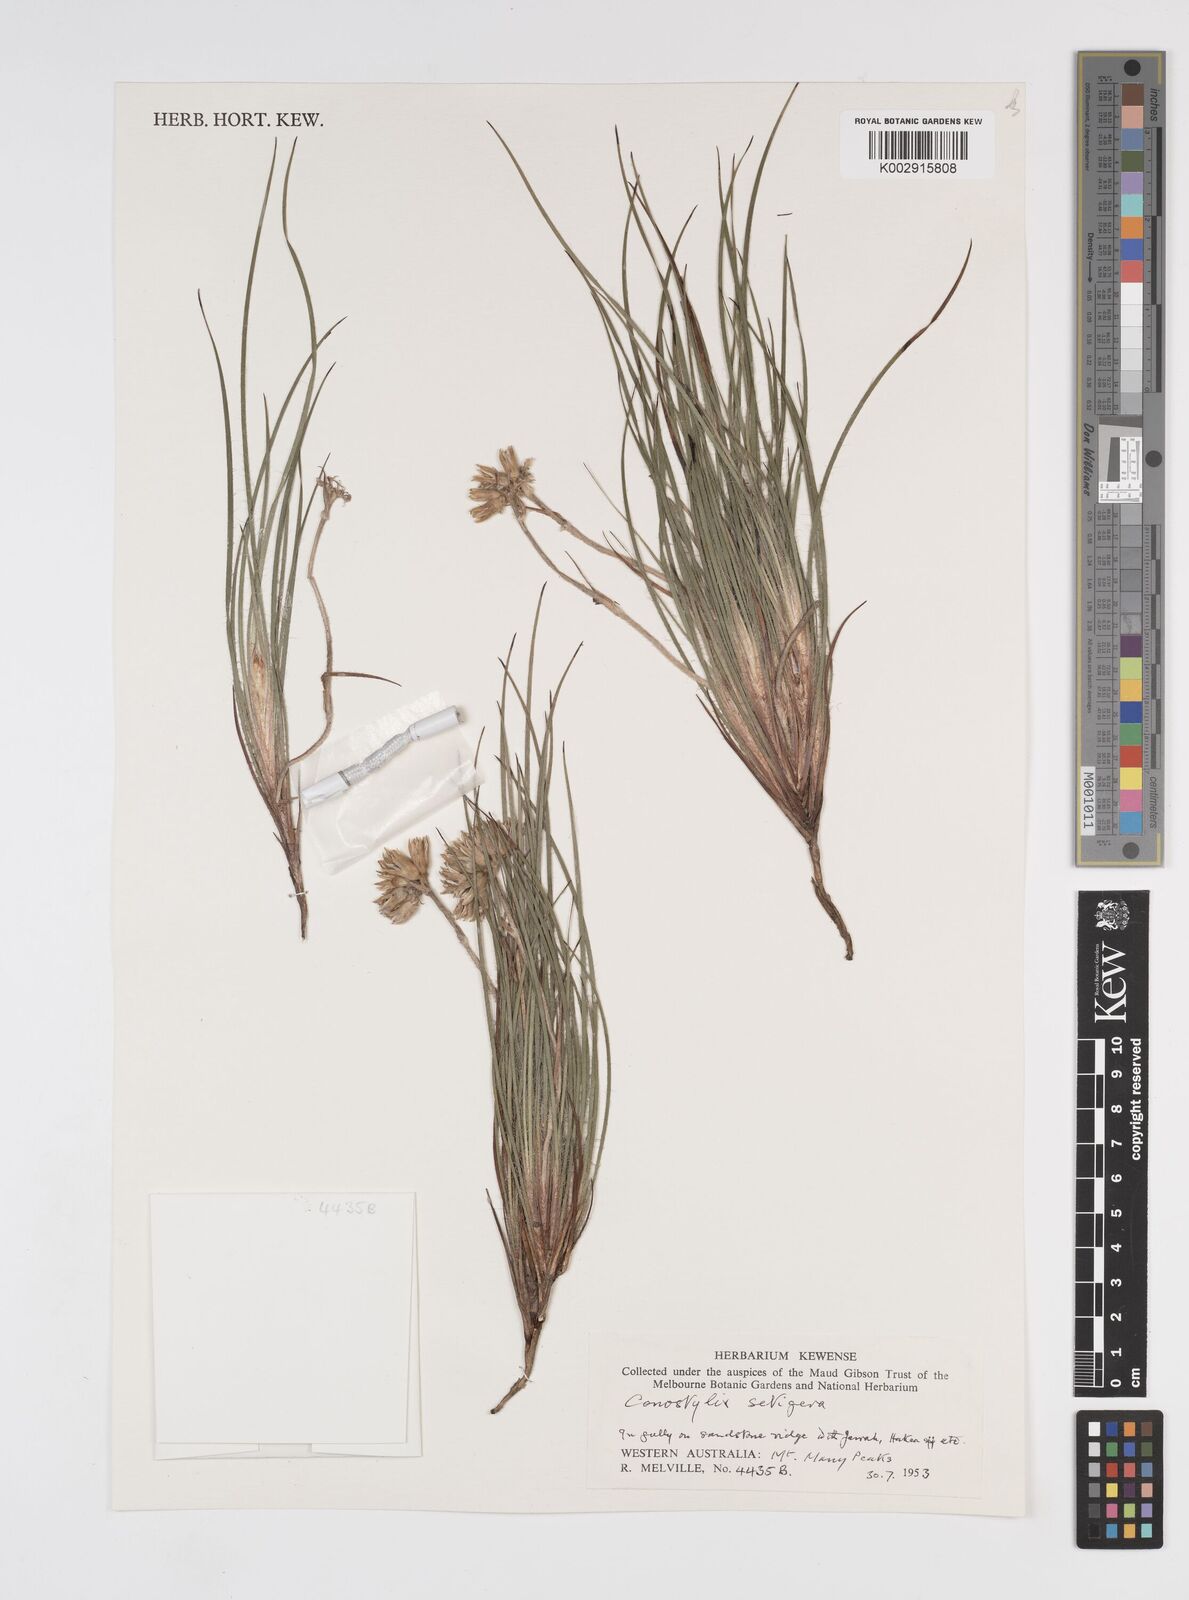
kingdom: Plantae
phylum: Tracheophyta
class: Liliopsida
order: Commelinales
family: Haemodoraceae
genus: Conostylis
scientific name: Conostylis setigera
